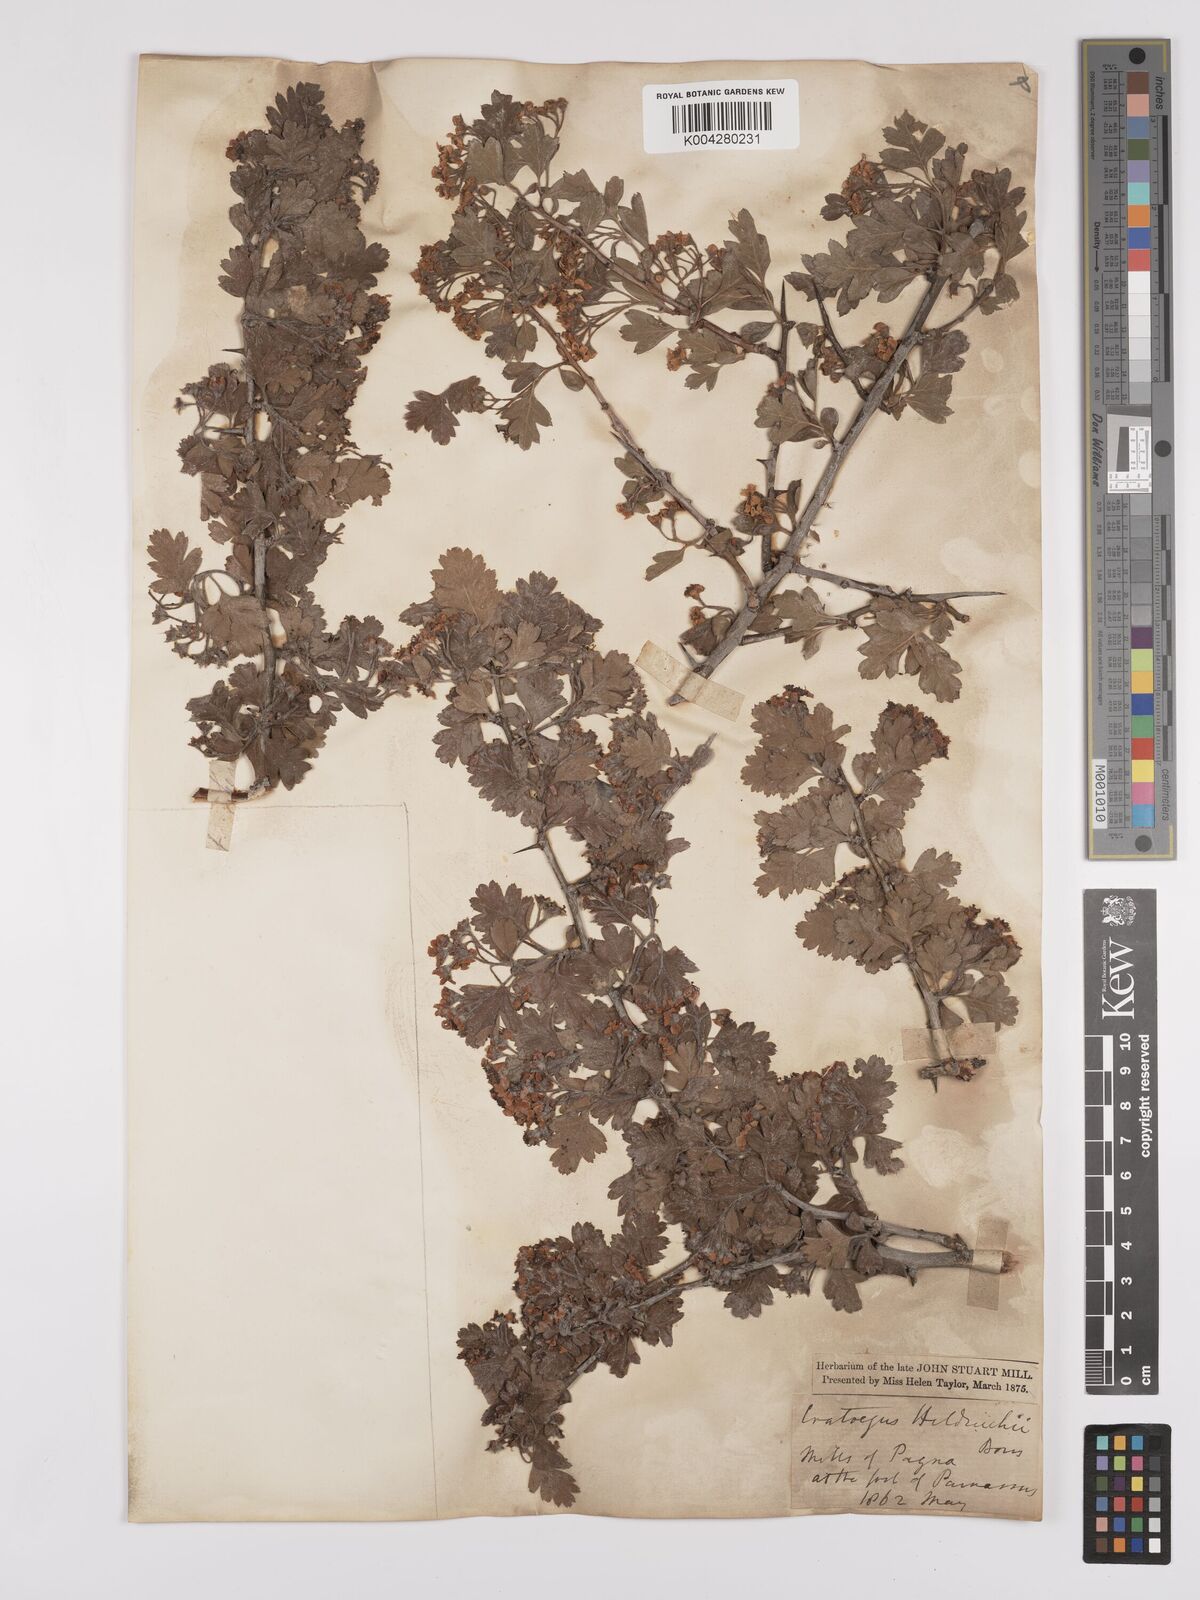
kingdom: Plantae
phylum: Tracheophyta
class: Magnoliopsida
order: Rosales
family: Rosaceae
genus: Crataegus
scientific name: Crataegus heldreichii
